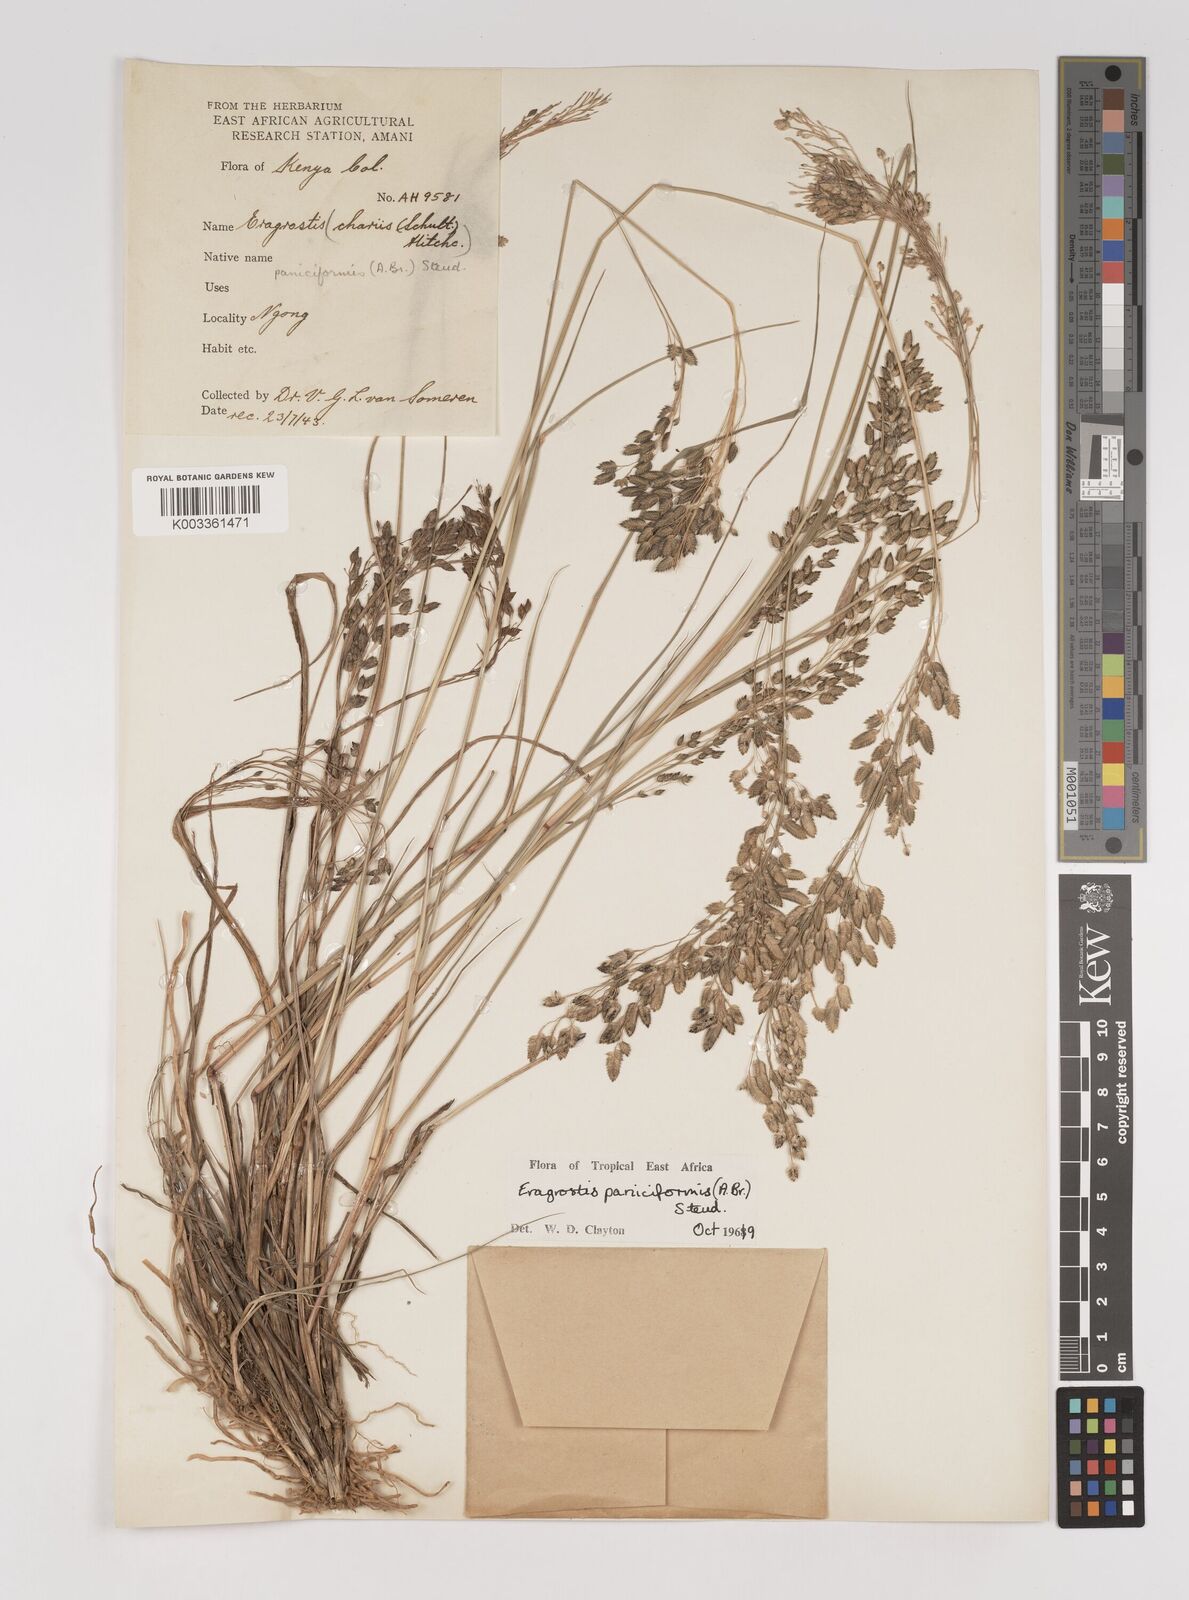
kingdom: Plantae
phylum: Tracheophyta
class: Liliopsida
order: Poales
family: Poaceae
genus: Eragrostis
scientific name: Eragrostis paniciformis
